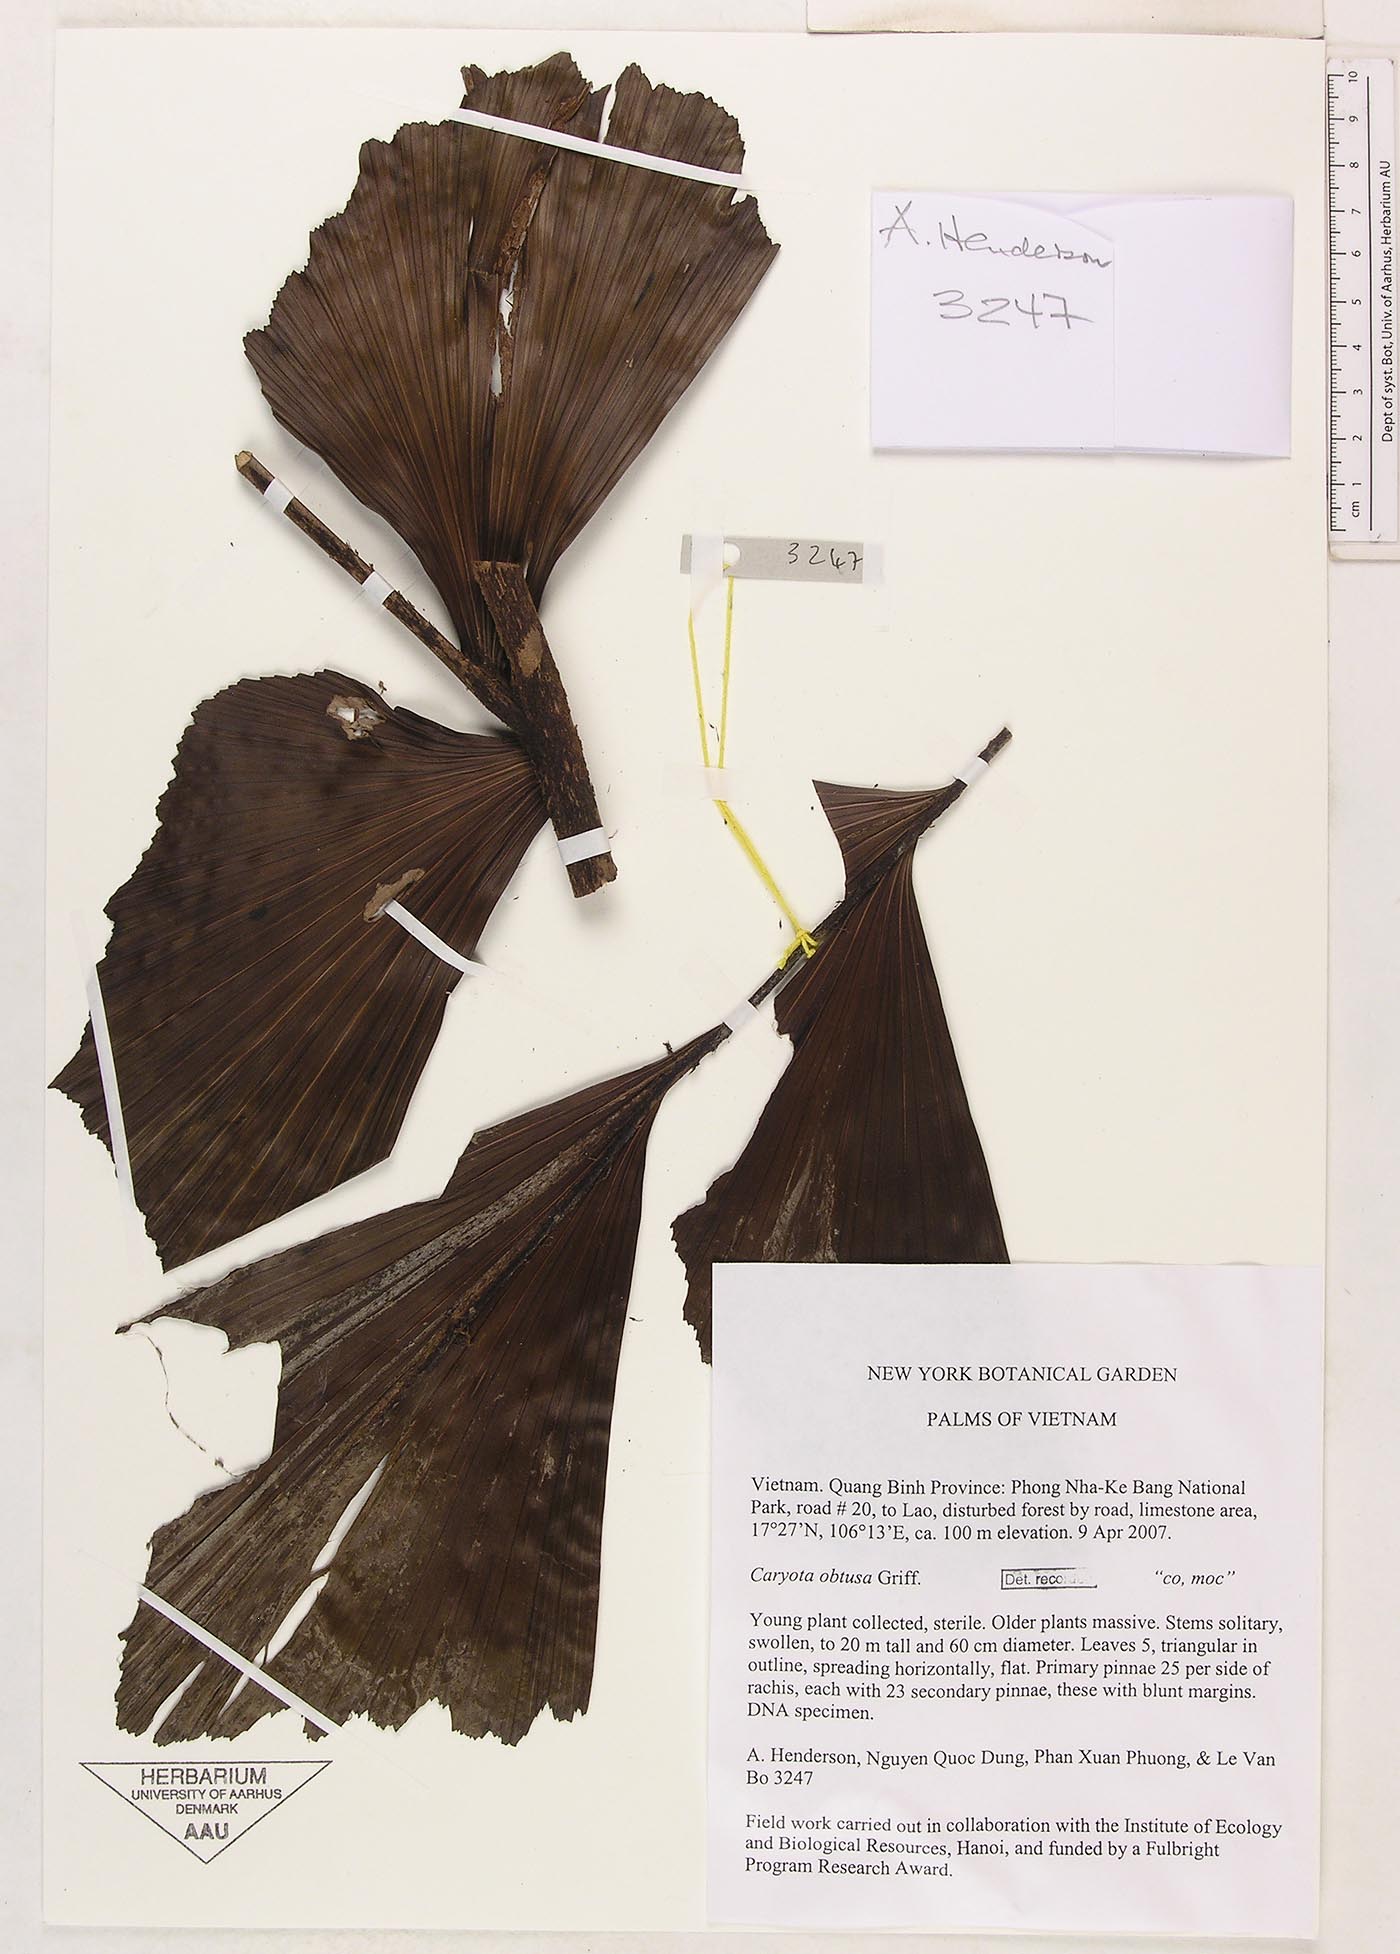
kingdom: Plantae
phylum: Tracheophyta
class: Liliopsida
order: Arecales
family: Arecaceae
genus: Caryota
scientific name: Caryota obtusa
